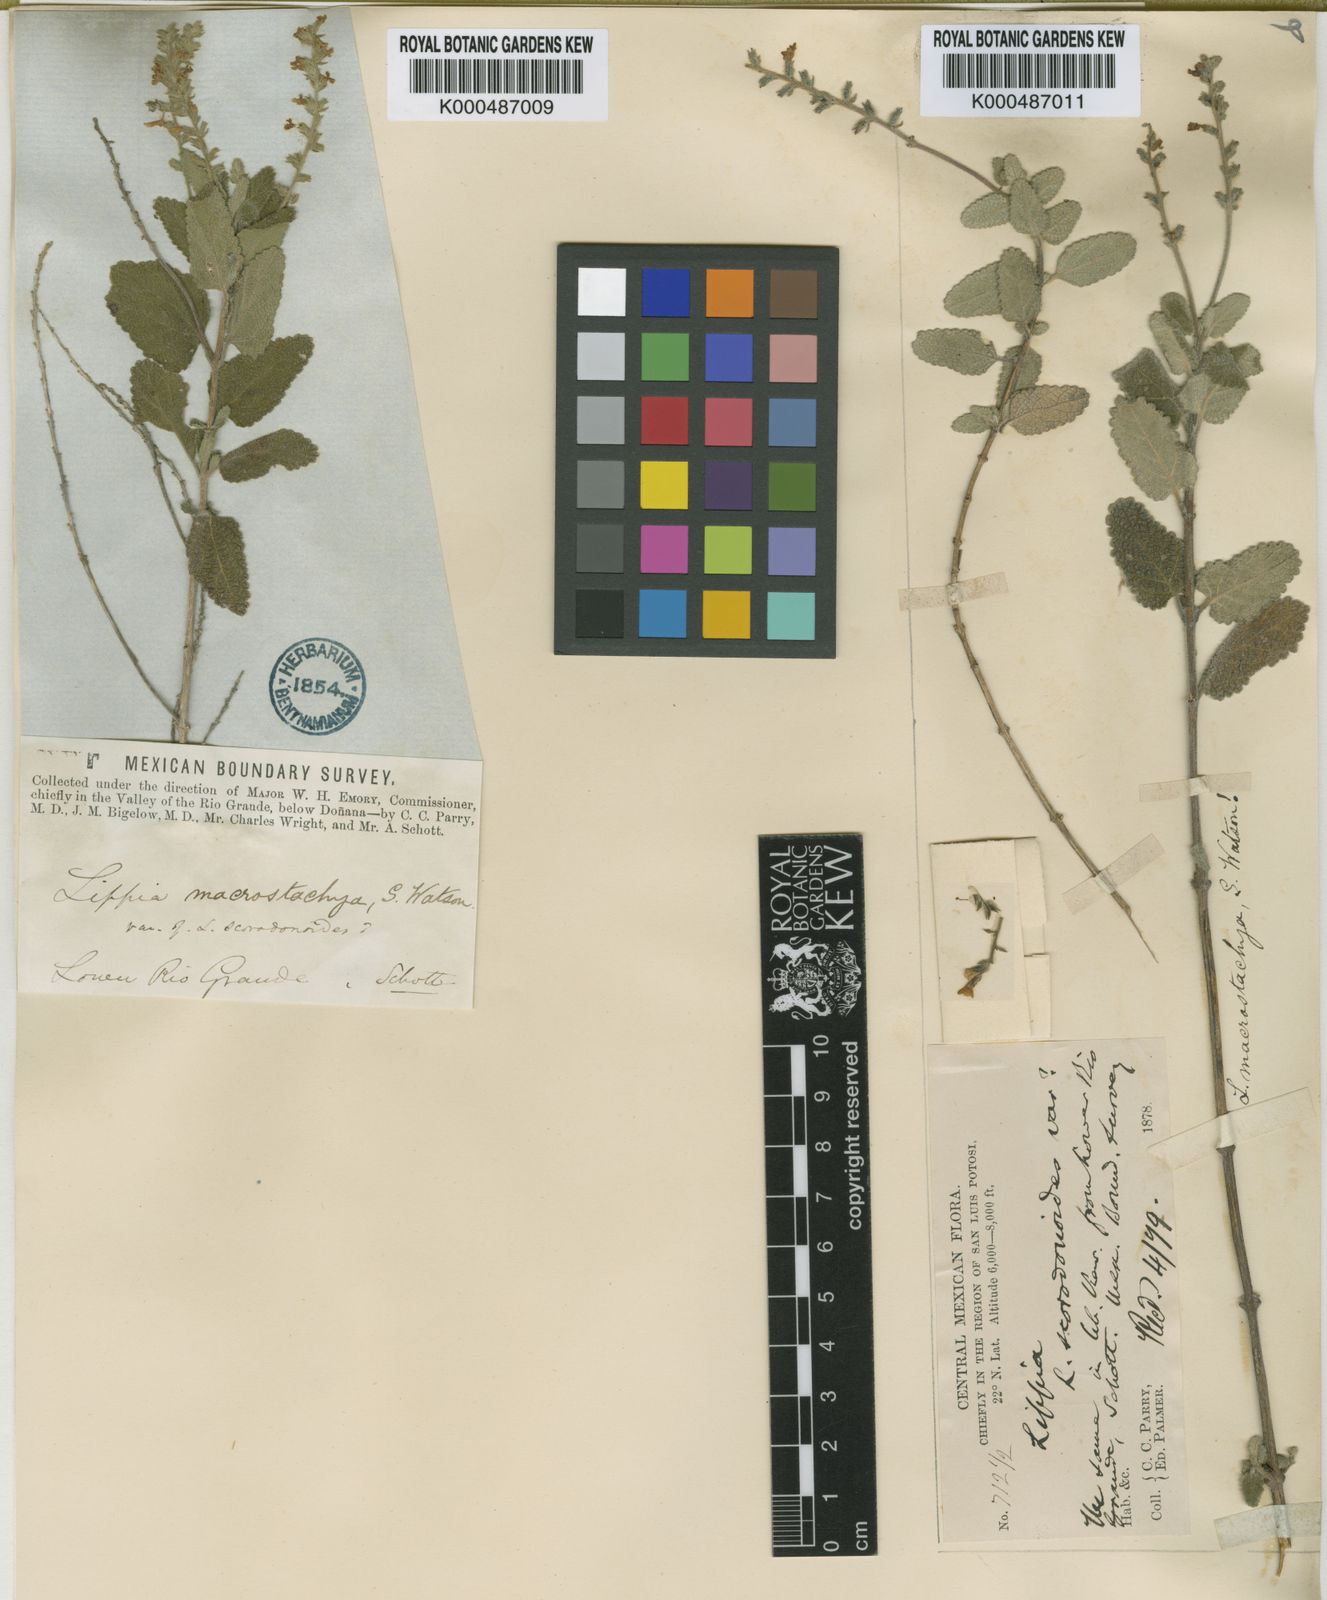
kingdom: Plantae
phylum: Tracheophyta
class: Magnoliopsida
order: Lamiales
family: Verbenaceae
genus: Aloysia
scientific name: Aloysia macrostachya
